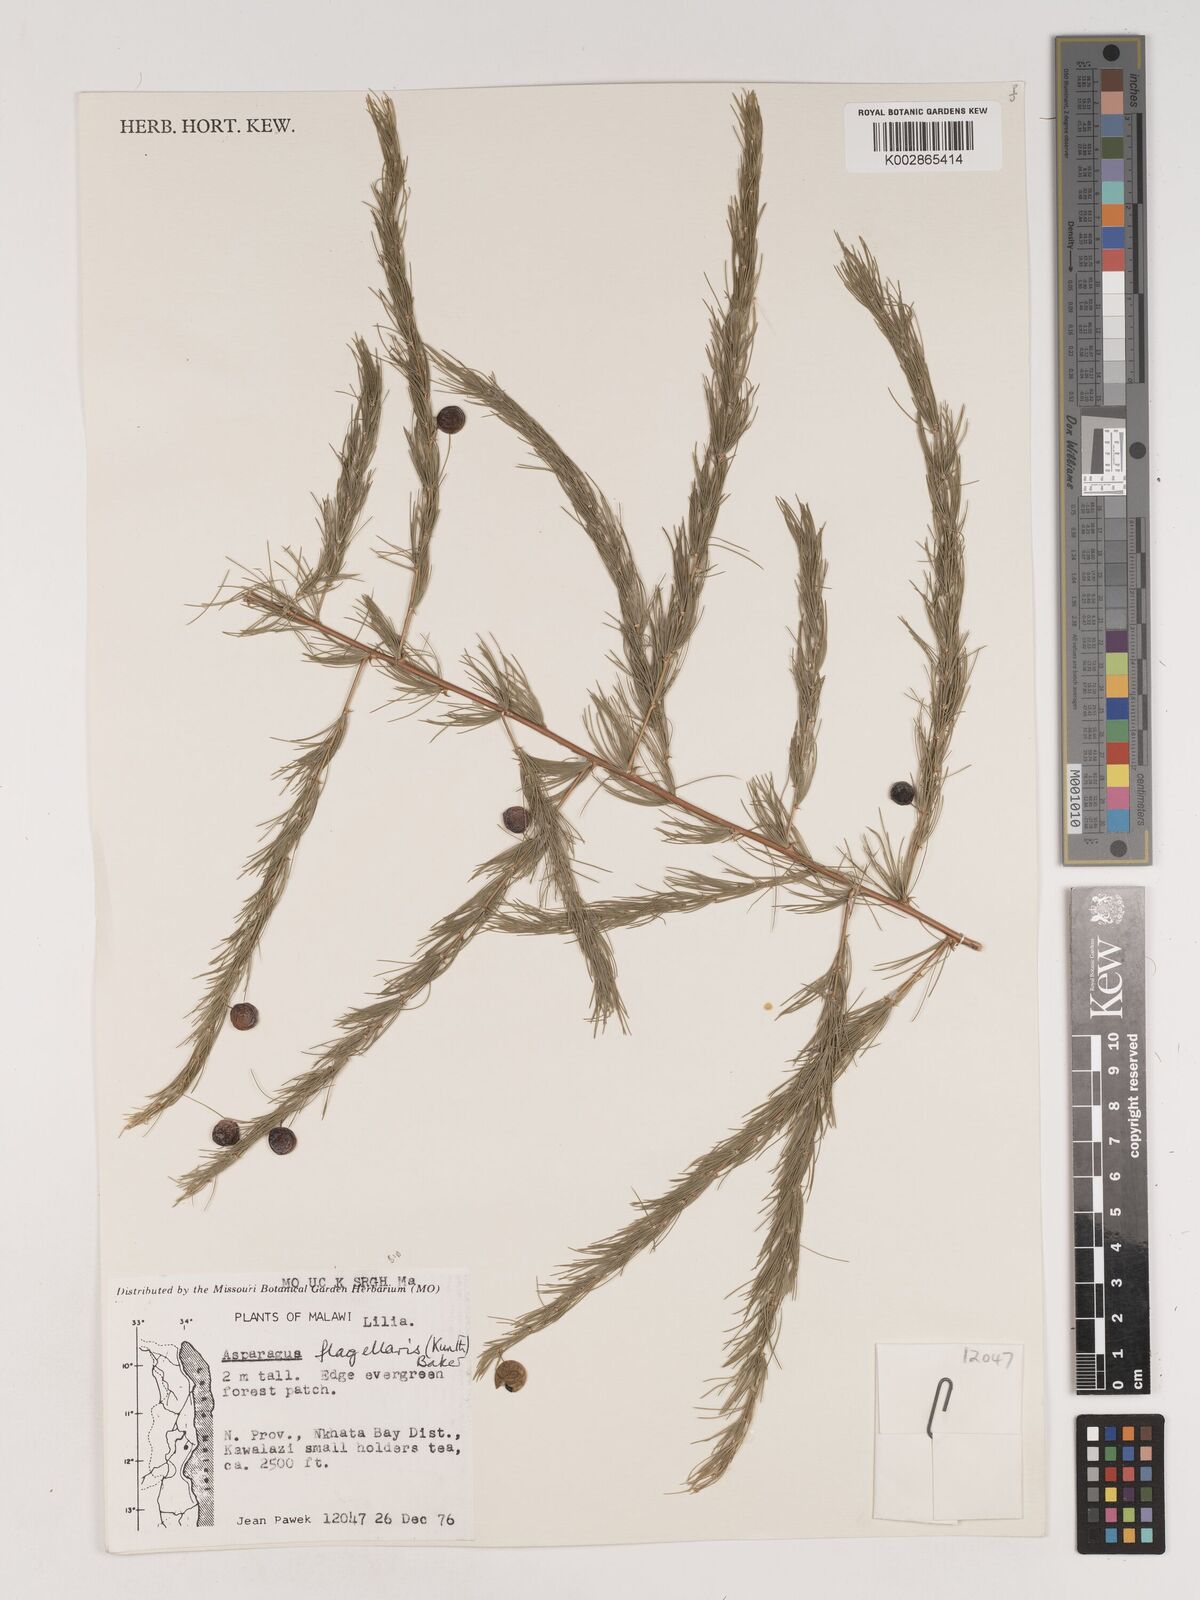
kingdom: Plantae
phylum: Tracheophyta
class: Liliopsida
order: Asparagales
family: Asparagaceae
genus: Asparagus
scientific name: Asparagus flagellaris
